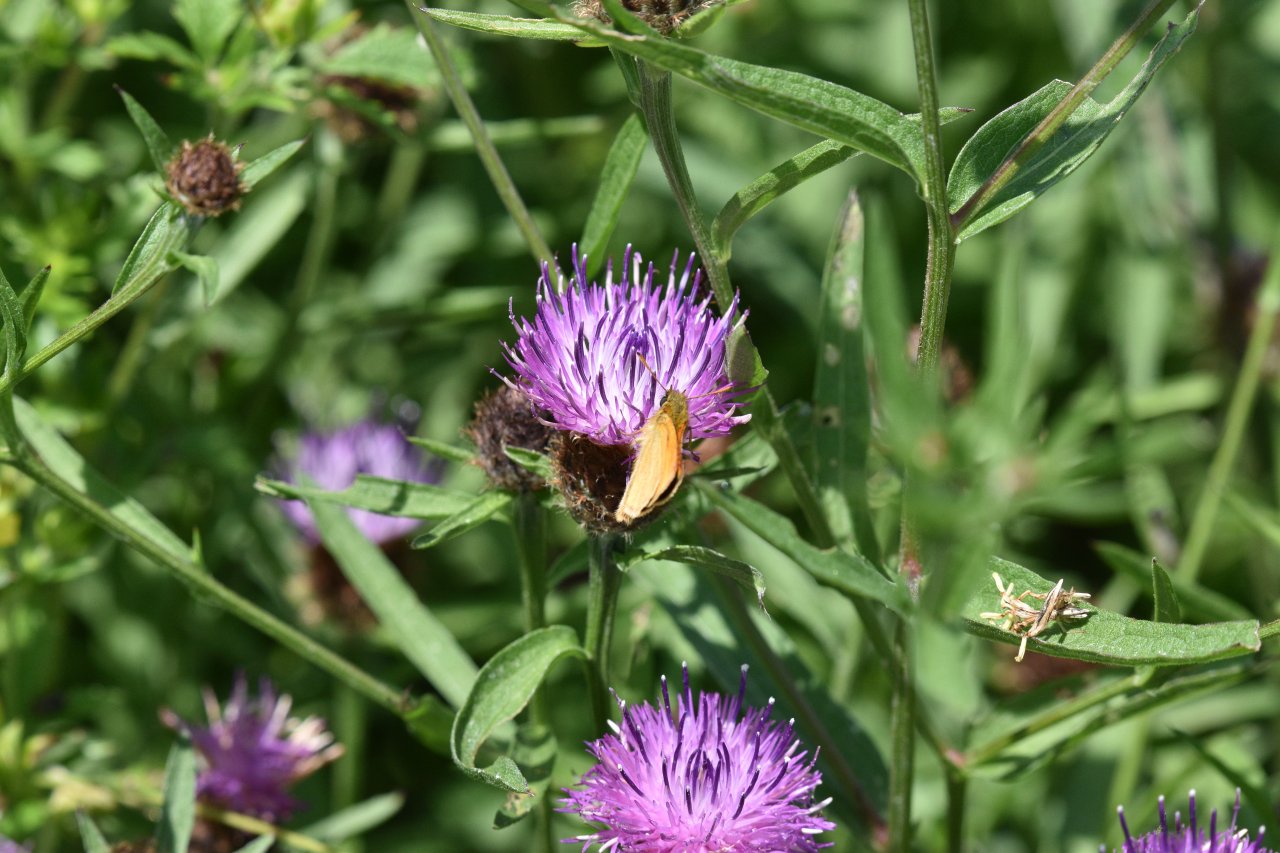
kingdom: Animalia
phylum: Arthropoda
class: Insecta
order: Lepidoptera
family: Hesperiidae
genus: Thymelicus
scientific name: Thymelicus lineola
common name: European Skipper
